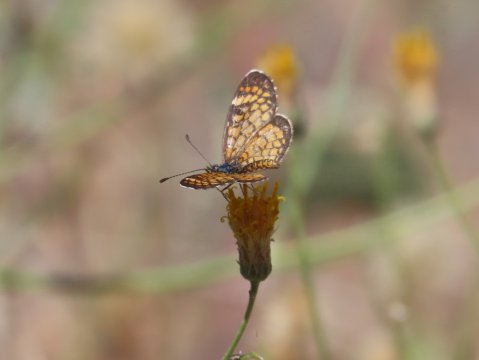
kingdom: Animalia
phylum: Arthropoda
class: Insecta
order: Lepidoptera
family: Nymphalidae
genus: Dymasia
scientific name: Dymasia dymas
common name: Tiny Checkerspot
